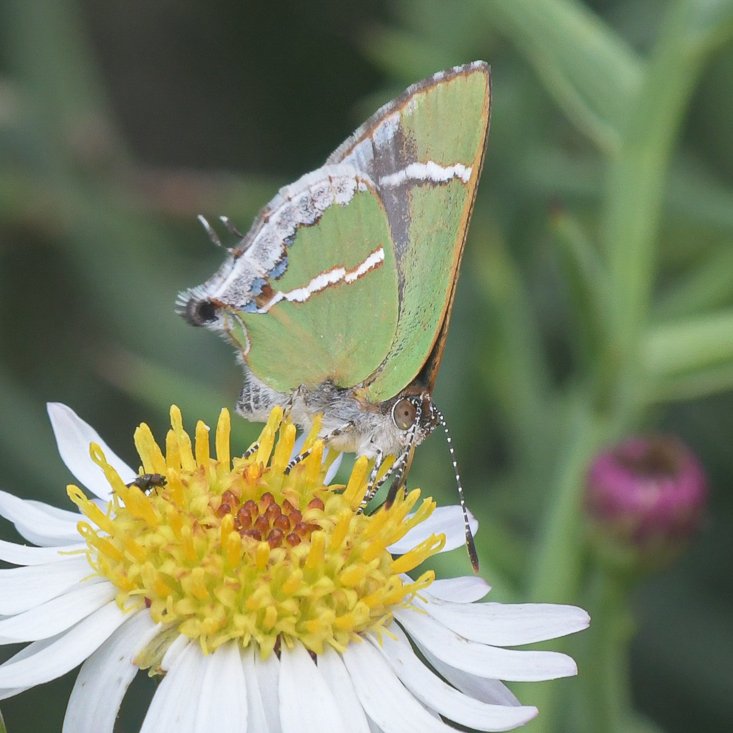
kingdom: Animalia
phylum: Arthropoda
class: Insecta
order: Lepidoptera
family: Lycaenidae
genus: Chlorostrymon
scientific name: Chlorostrymon simaethis
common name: Silver-banded Hairstreak
